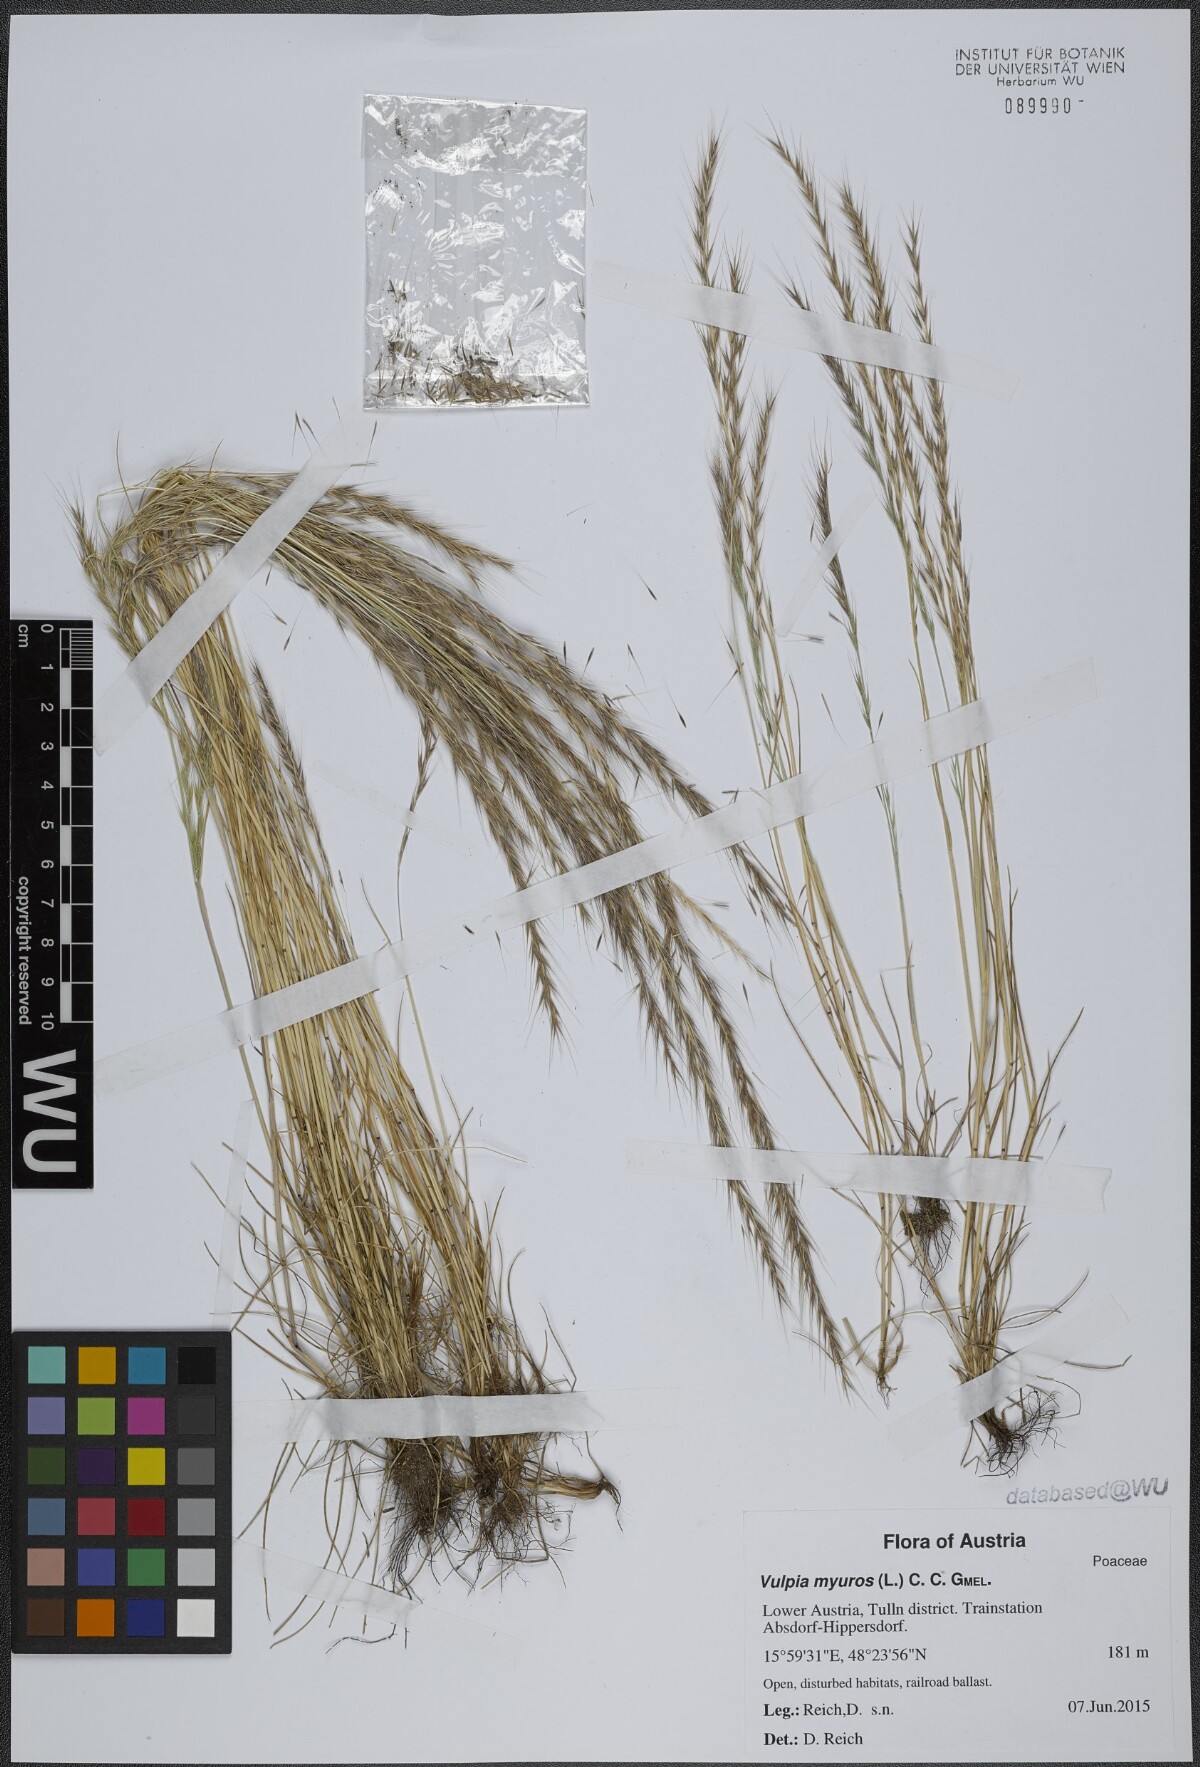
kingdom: Plantae
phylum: Tracheophyta
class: Liliopsida
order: Poales
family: Poaceae
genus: Festuca
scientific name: Festuca myuros
